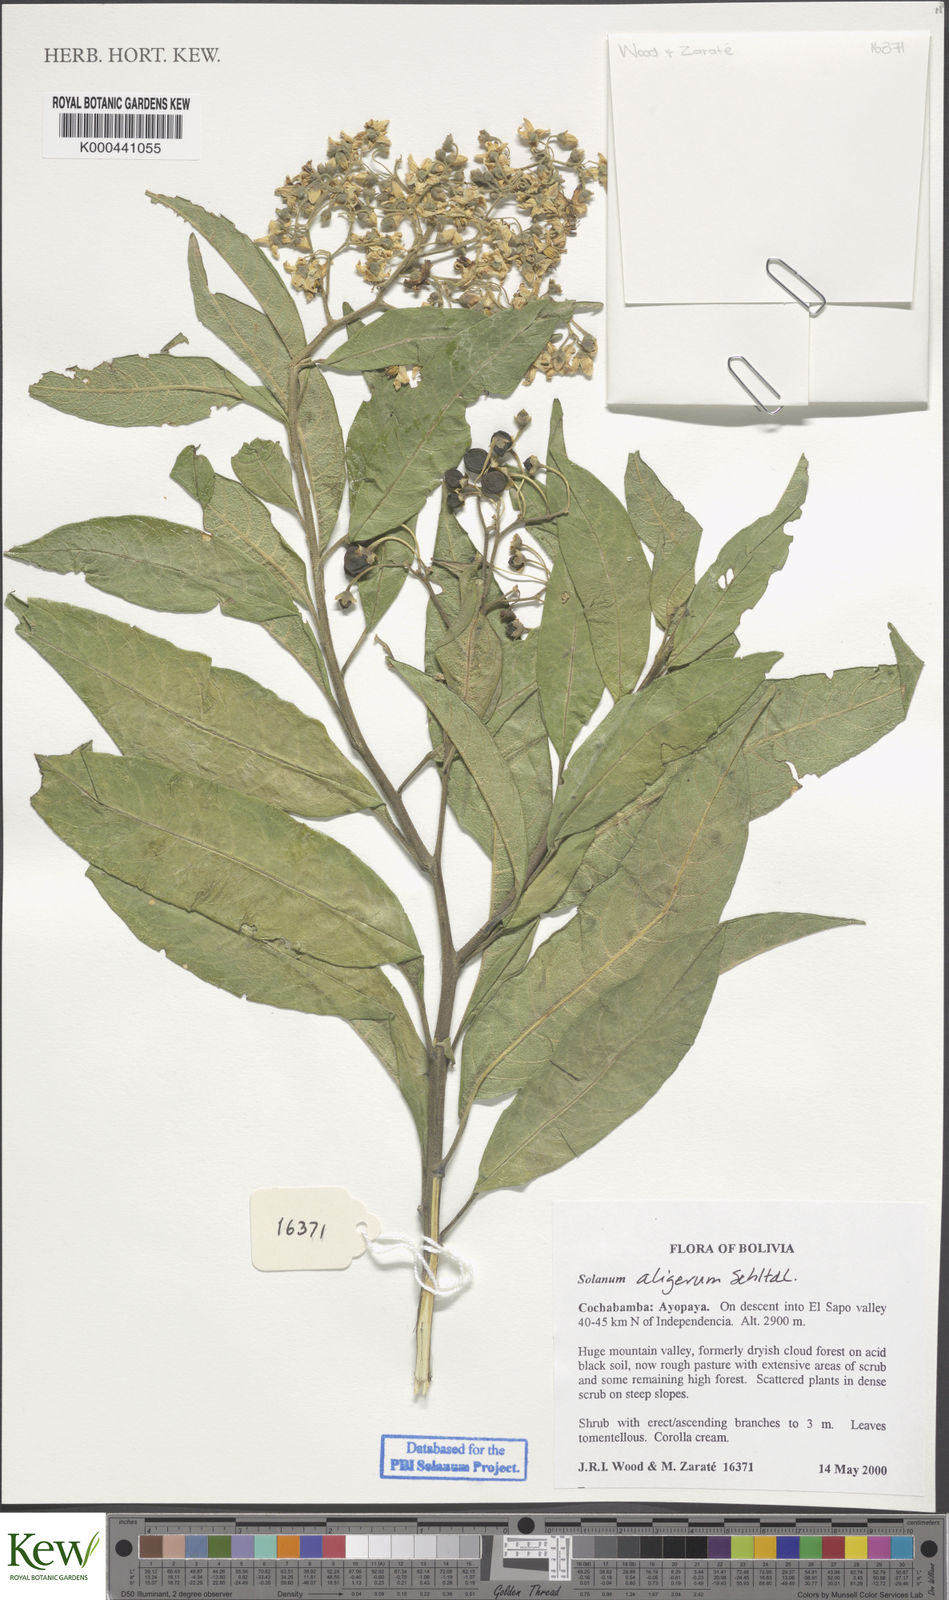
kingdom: Plantae
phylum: Tracheophyta
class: Magnoliopsida
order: Solanales
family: Solanaceae
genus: Solanum
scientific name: Solanum aligerum
